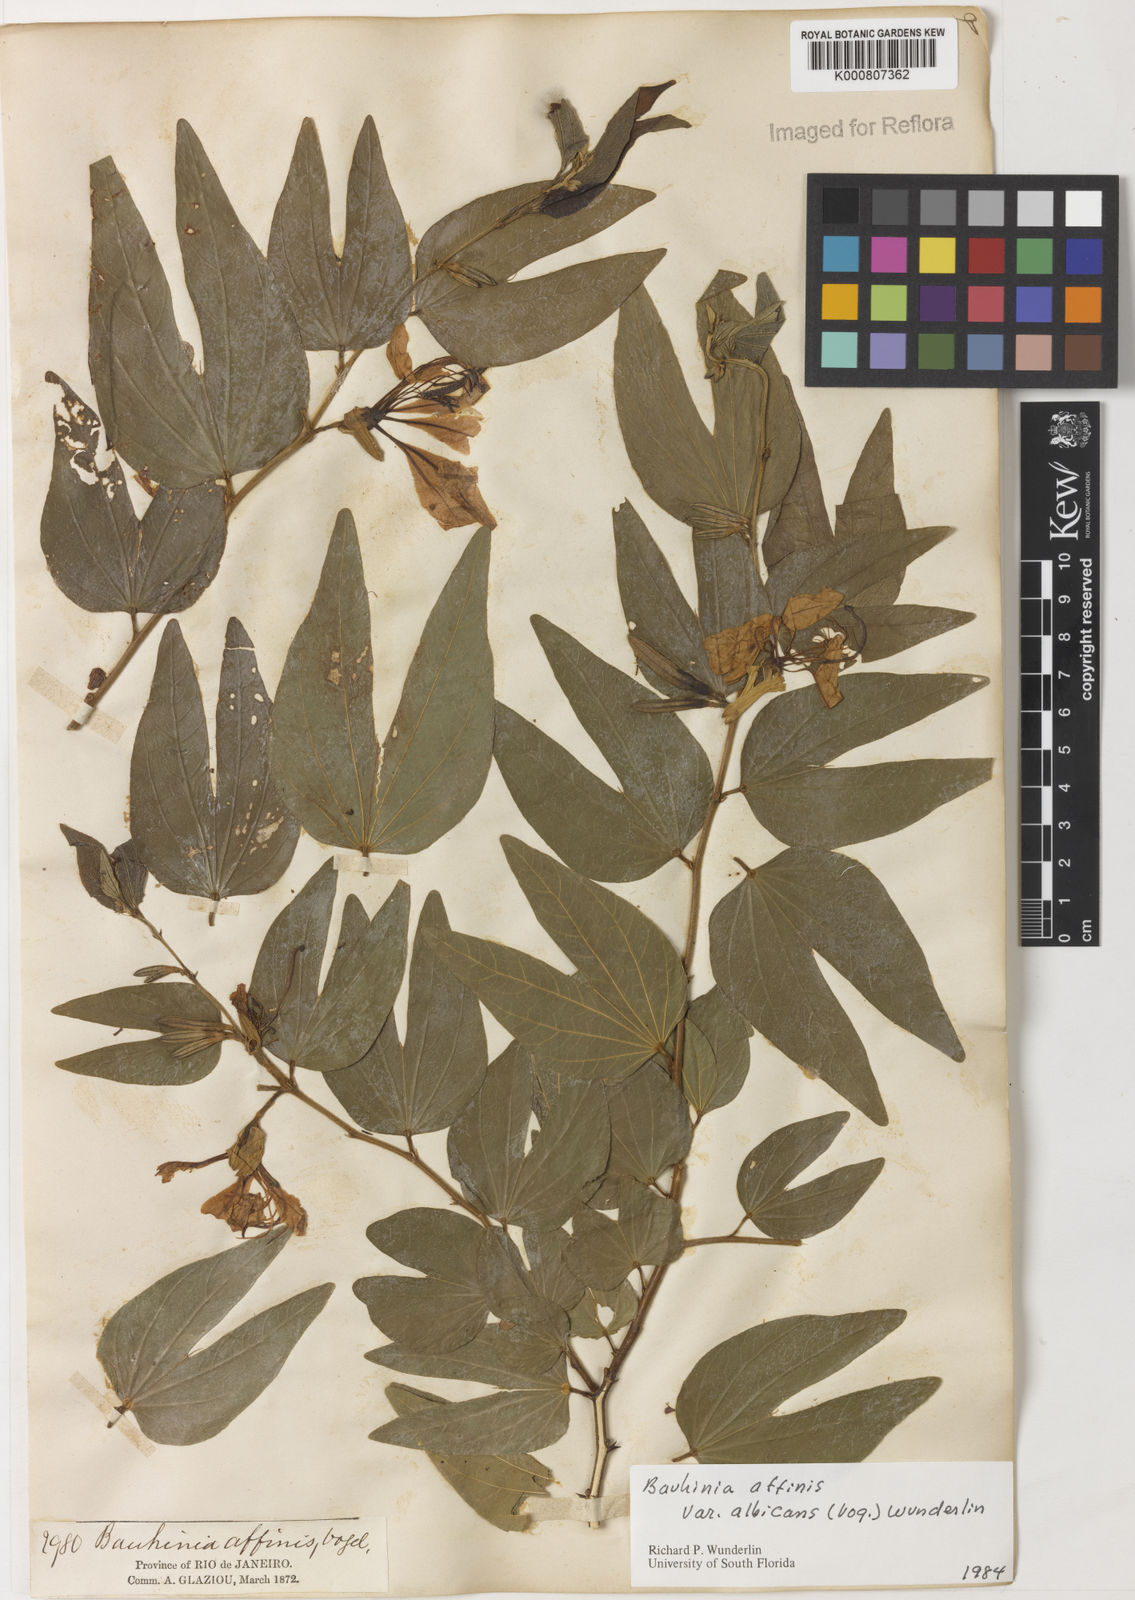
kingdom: Plantae
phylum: Tracheophyta
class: Magnoliopsida
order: Fabales
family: Fabaceae
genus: Bauhinia
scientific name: Bauhinia affinis
